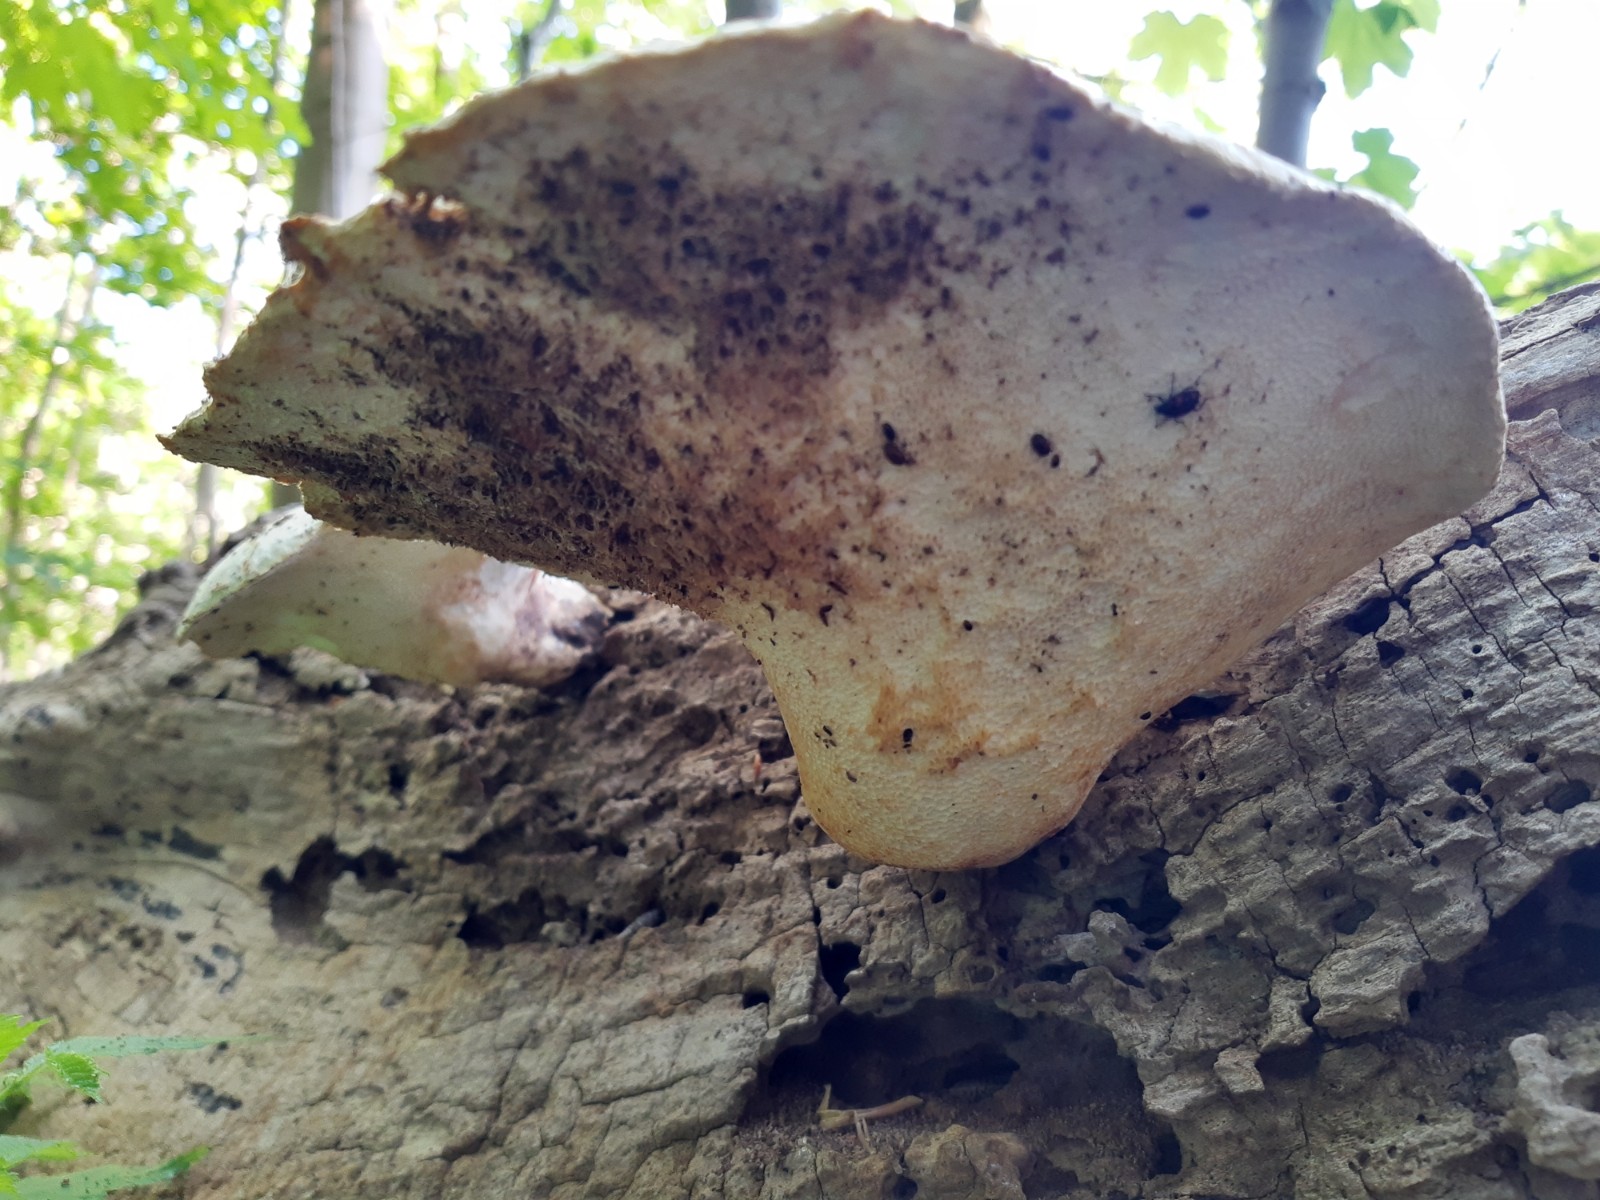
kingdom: Fungi
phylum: Basidiomycota
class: Agaricomycetes
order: Polyporales
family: Polyporaceae
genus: Cerioporus
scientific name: Cerioporus squamosus
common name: skællet stilkporesvamp
